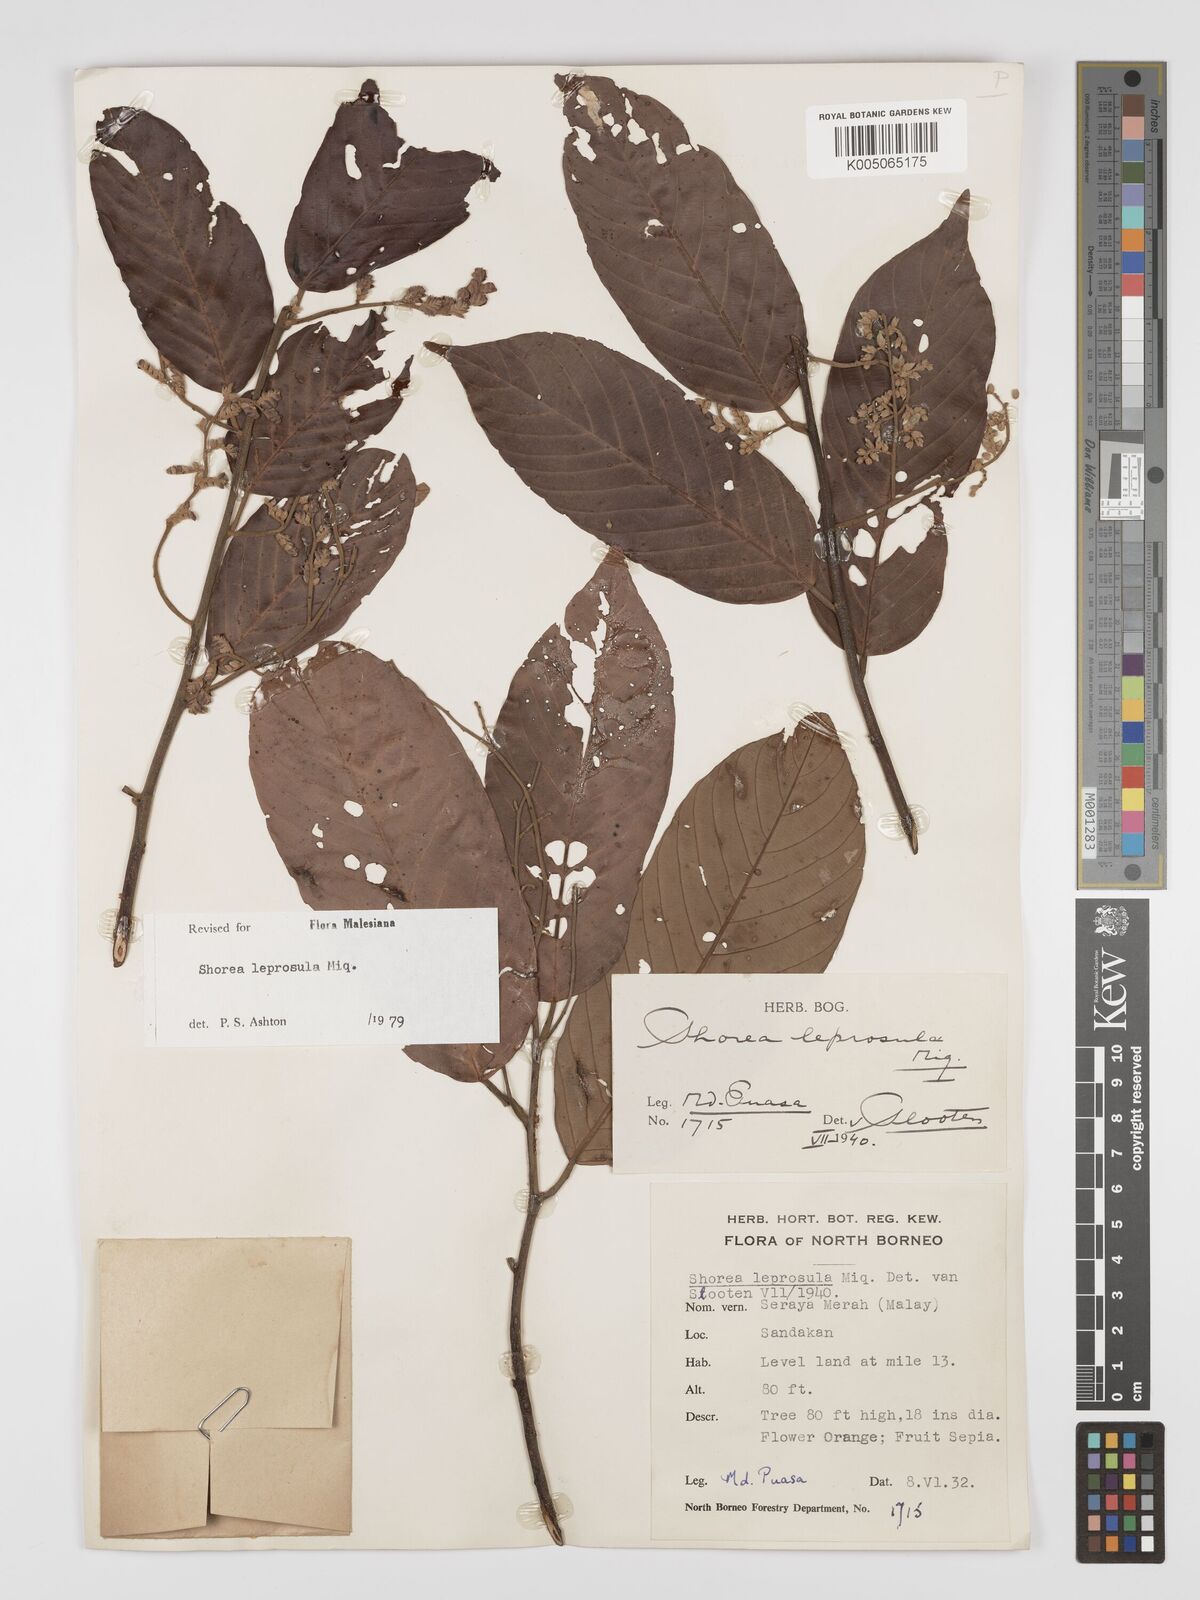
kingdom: Plantae
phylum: Tracheophyta
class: Magnoliopsida
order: Malvales
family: Dipterocarpaceae
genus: Shorea
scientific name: Shorea leprosula
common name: Light red meranti
